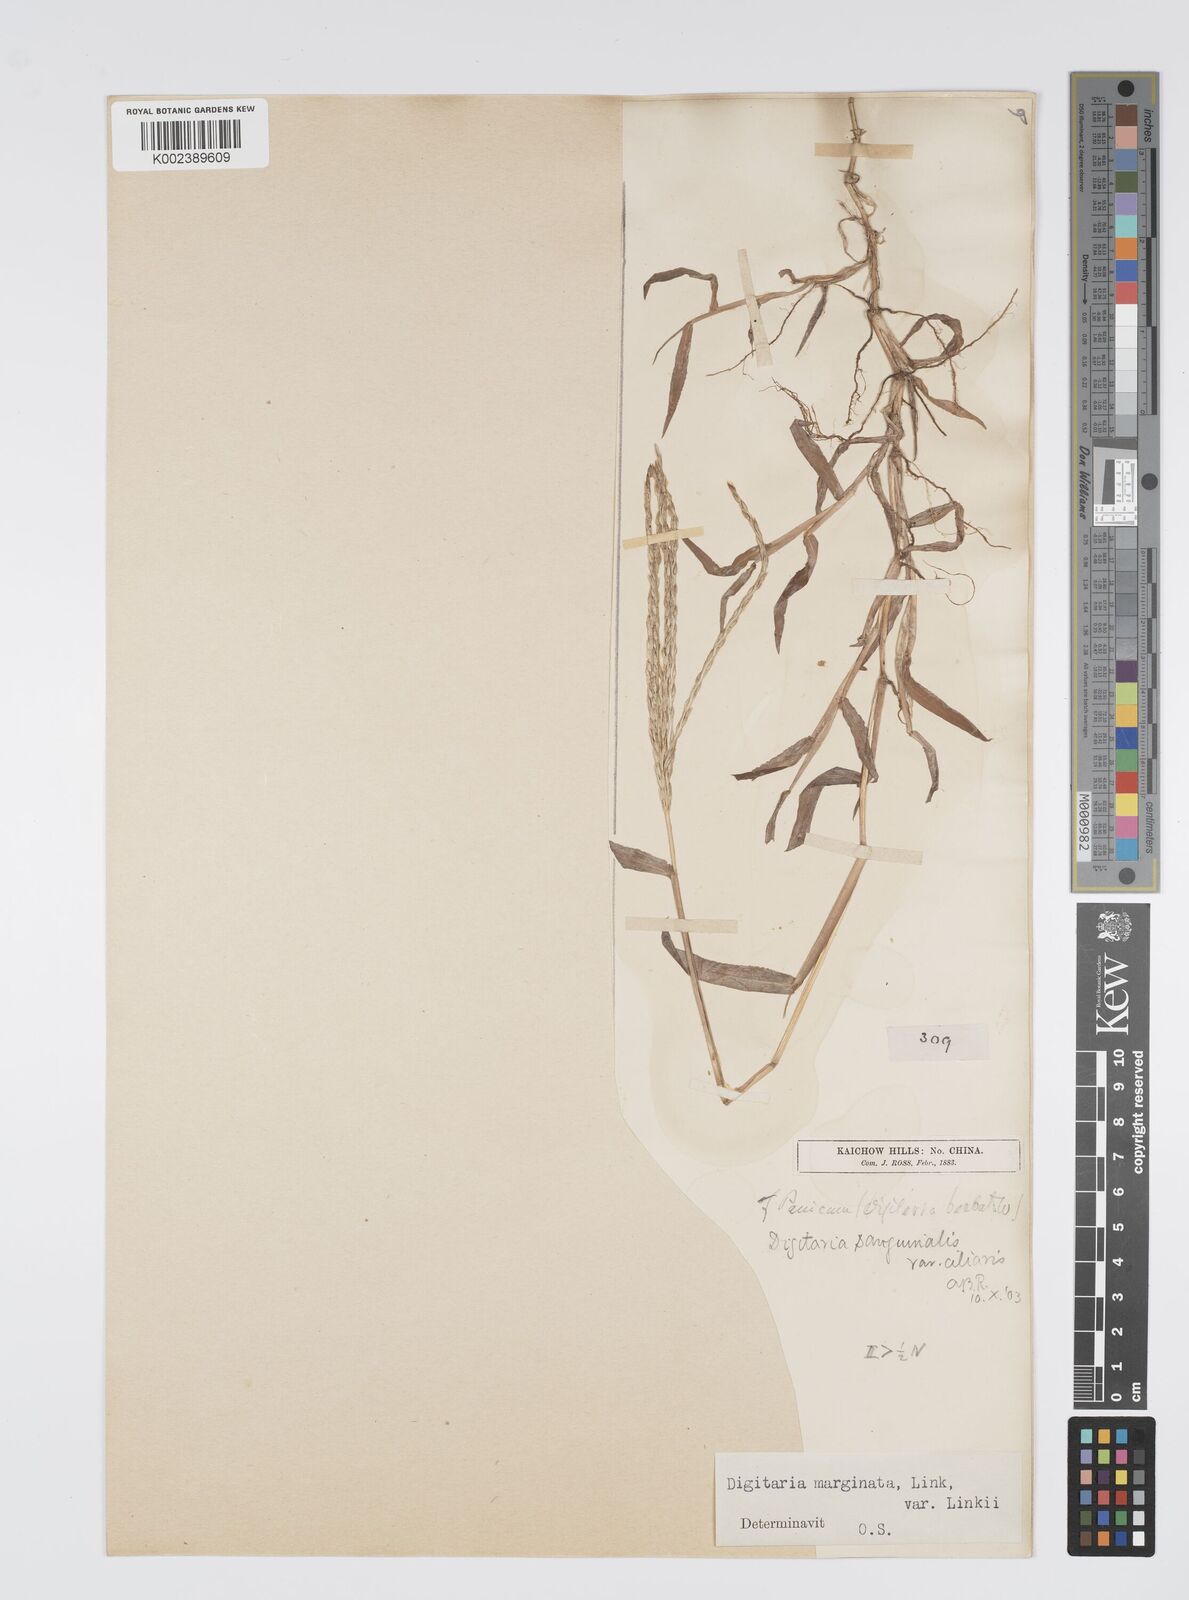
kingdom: Plantae
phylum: Tracheophyta
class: Liliopsida
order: Poales
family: Poaceae
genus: Digitaria
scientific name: Digitaria ciliaris
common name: Tropical finger-grass
